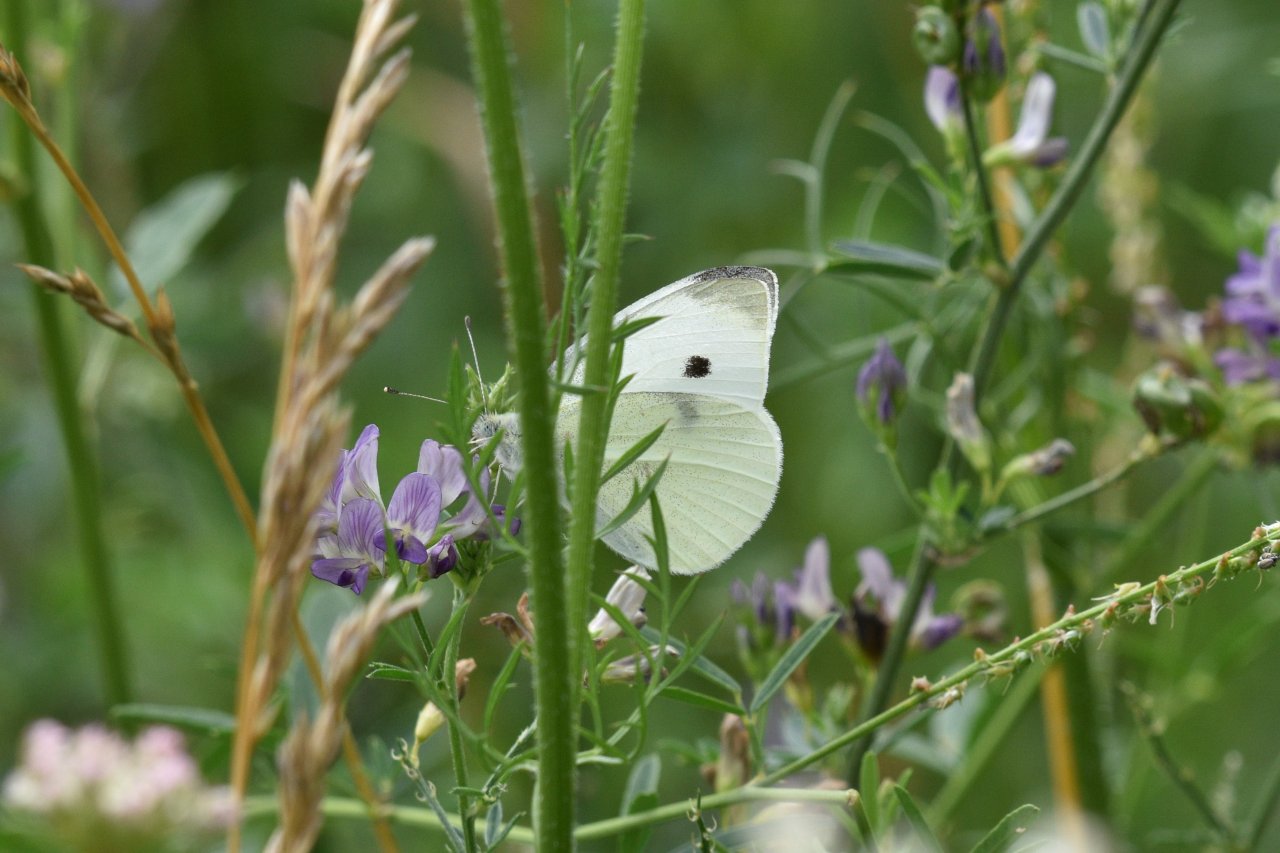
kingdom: Animalia
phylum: Arthropoda
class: Insecta
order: Lepidoptera
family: Pieridae
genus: Pieris
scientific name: Pieris rapae
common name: Cabbage White
